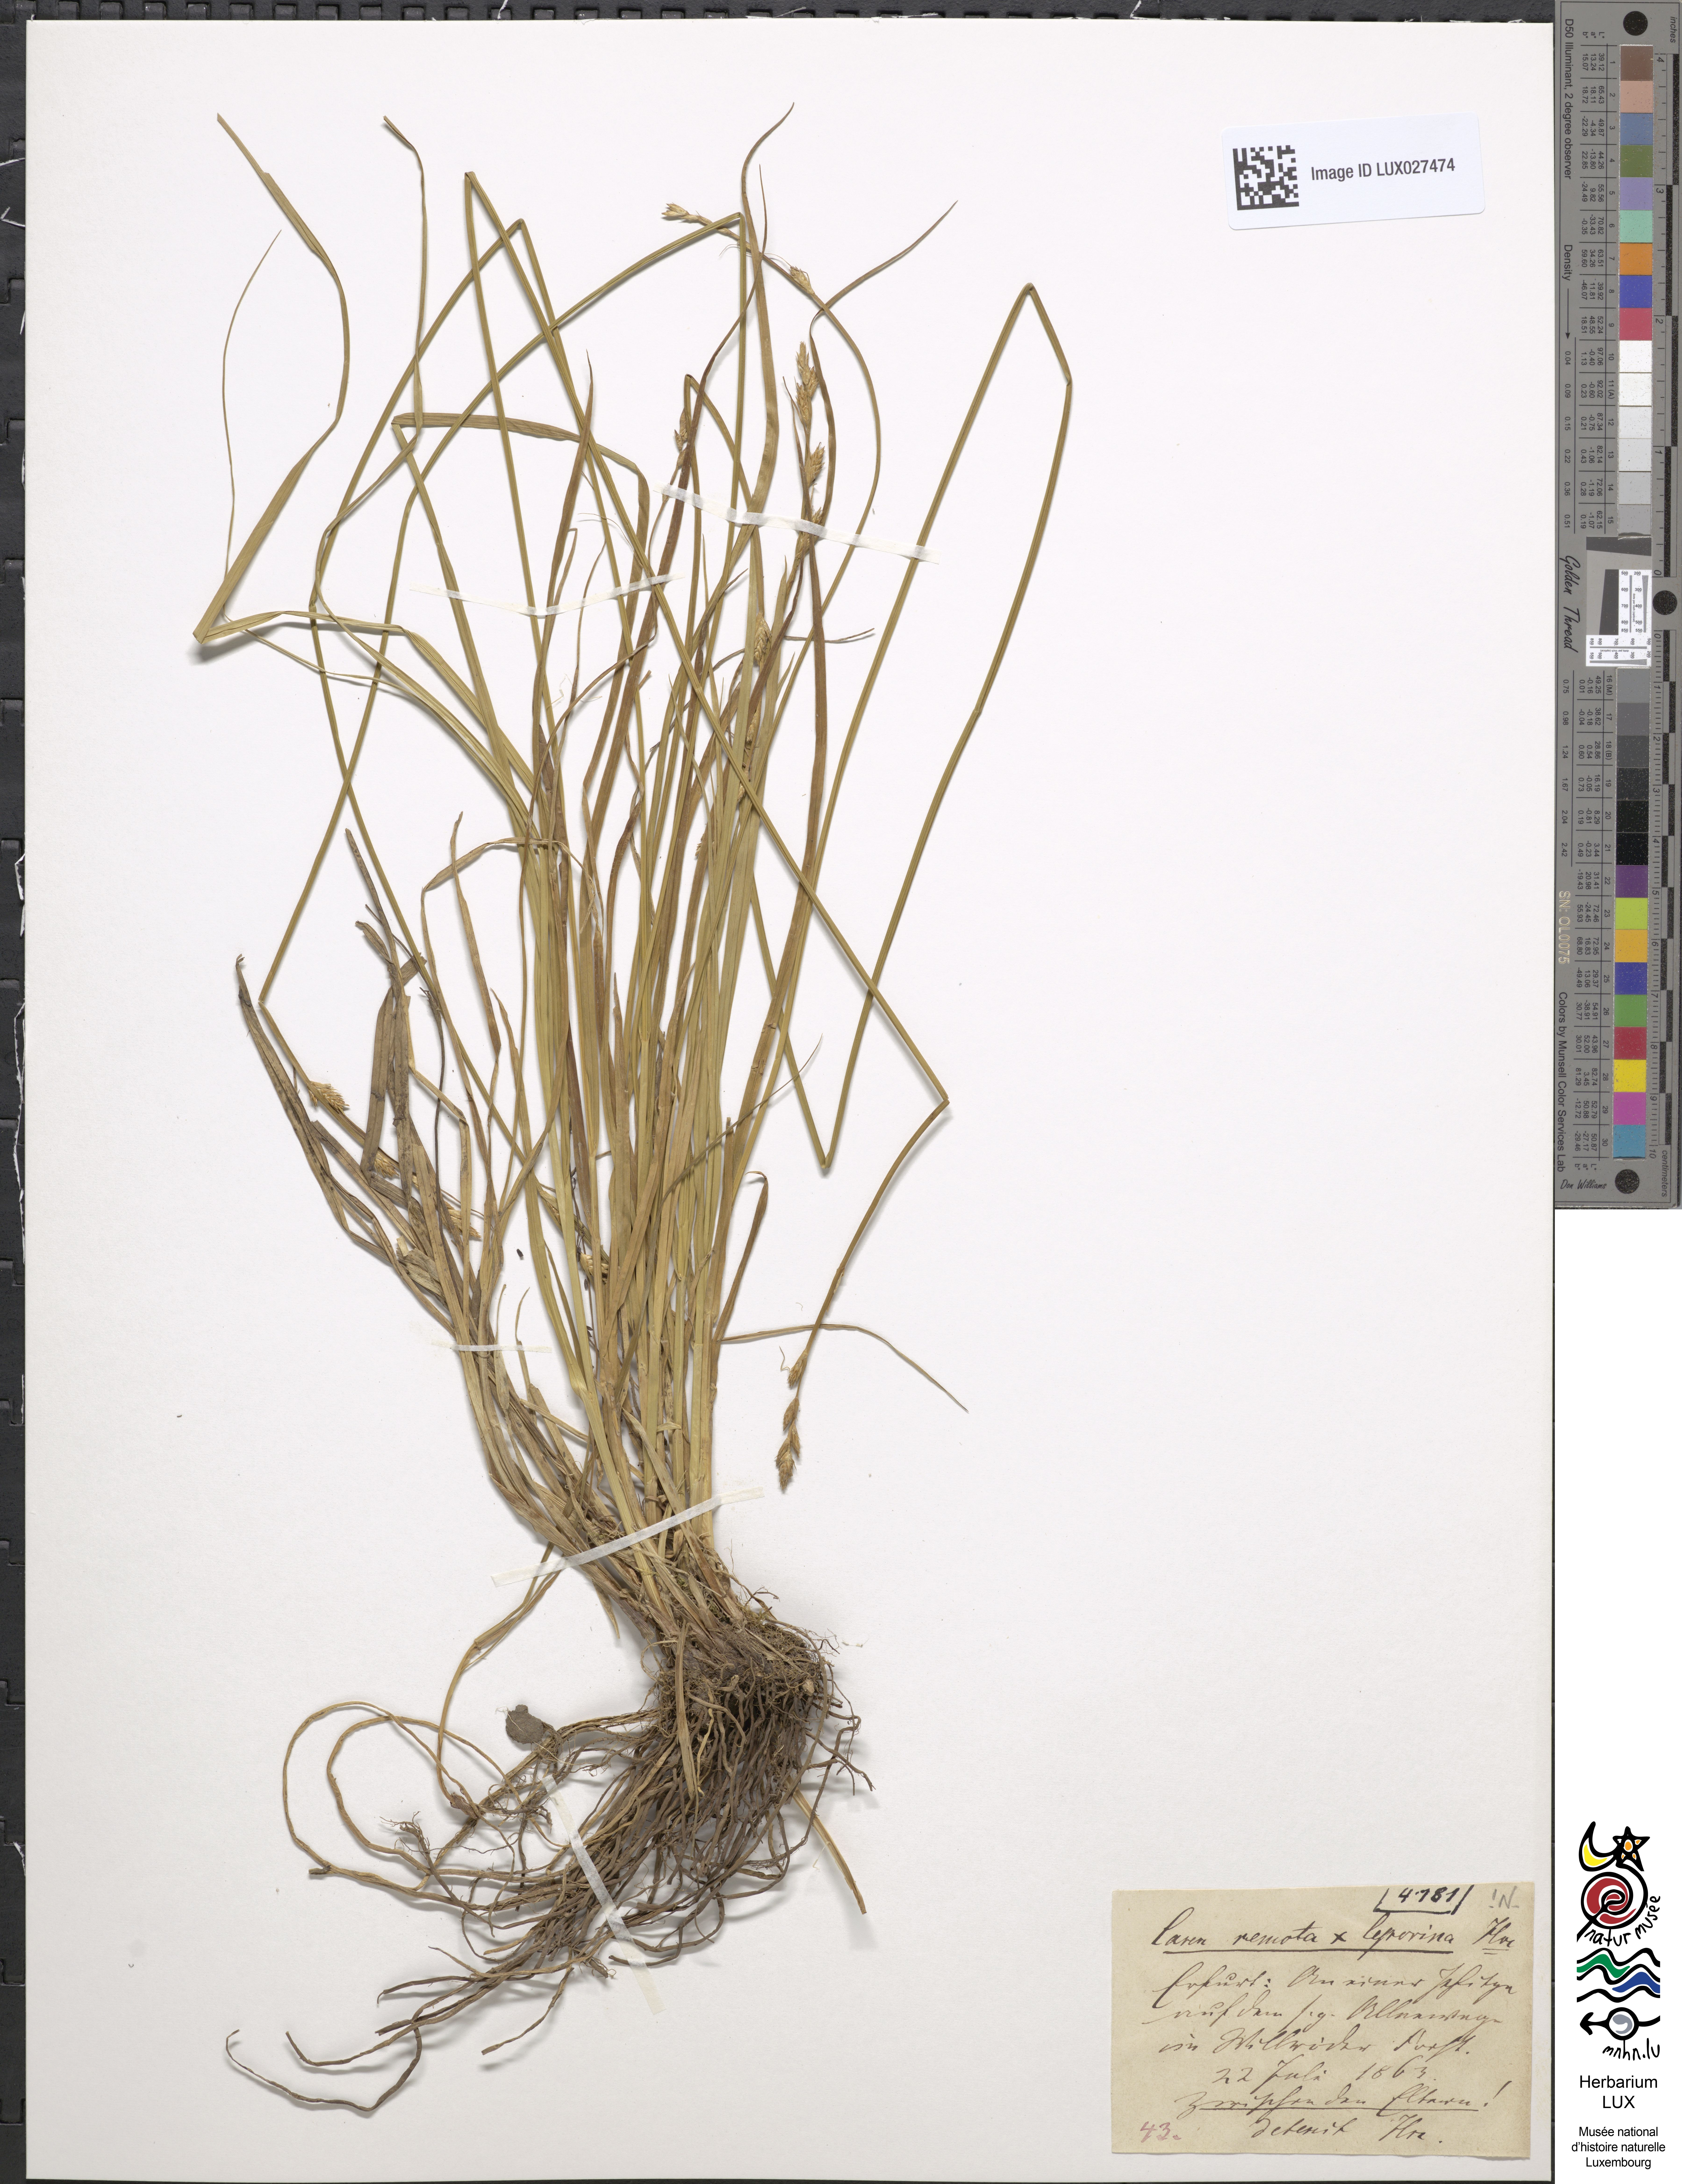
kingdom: Plantae
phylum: Tracheophyta
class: Liliopsida
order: Poales
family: Cyperaceae
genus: Carex
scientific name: Carex ilseana
